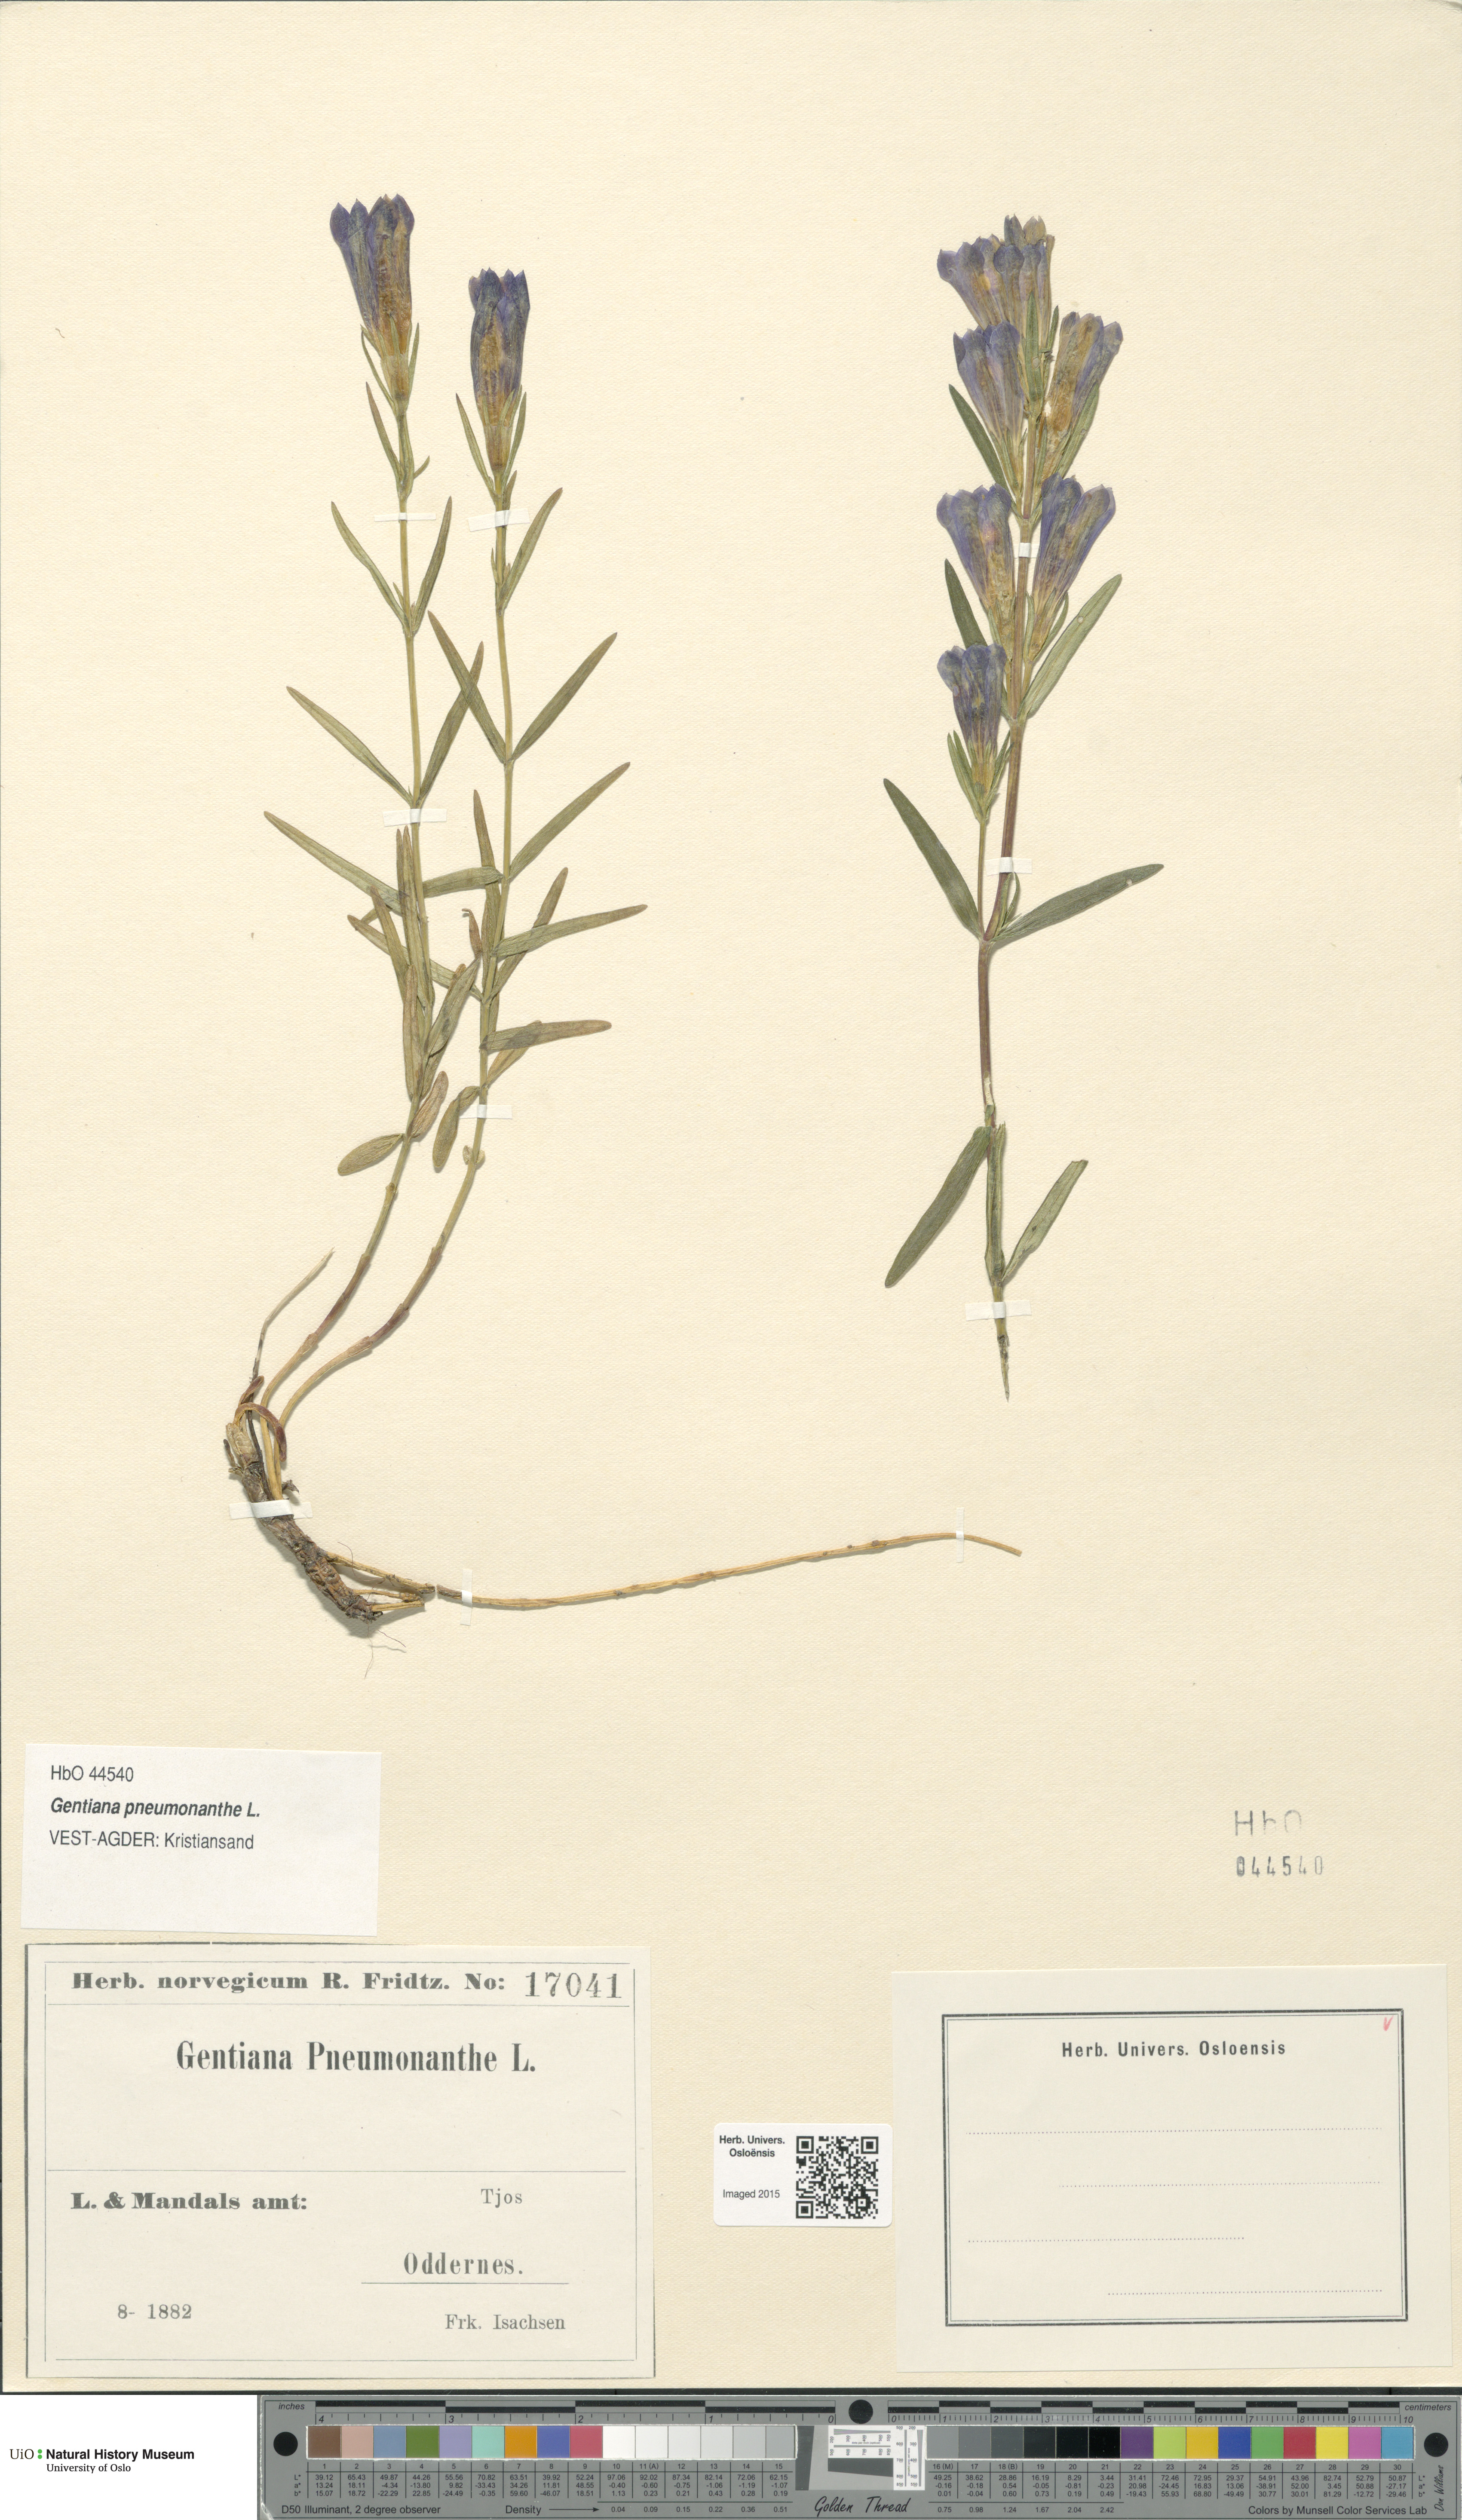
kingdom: Plantae
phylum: Tracheophyta
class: Magnoliopsida
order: Gentianales
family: Gentianaceae
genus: Gentiana
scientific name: Gentiana pneumonanthe
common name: Marsh gentian
